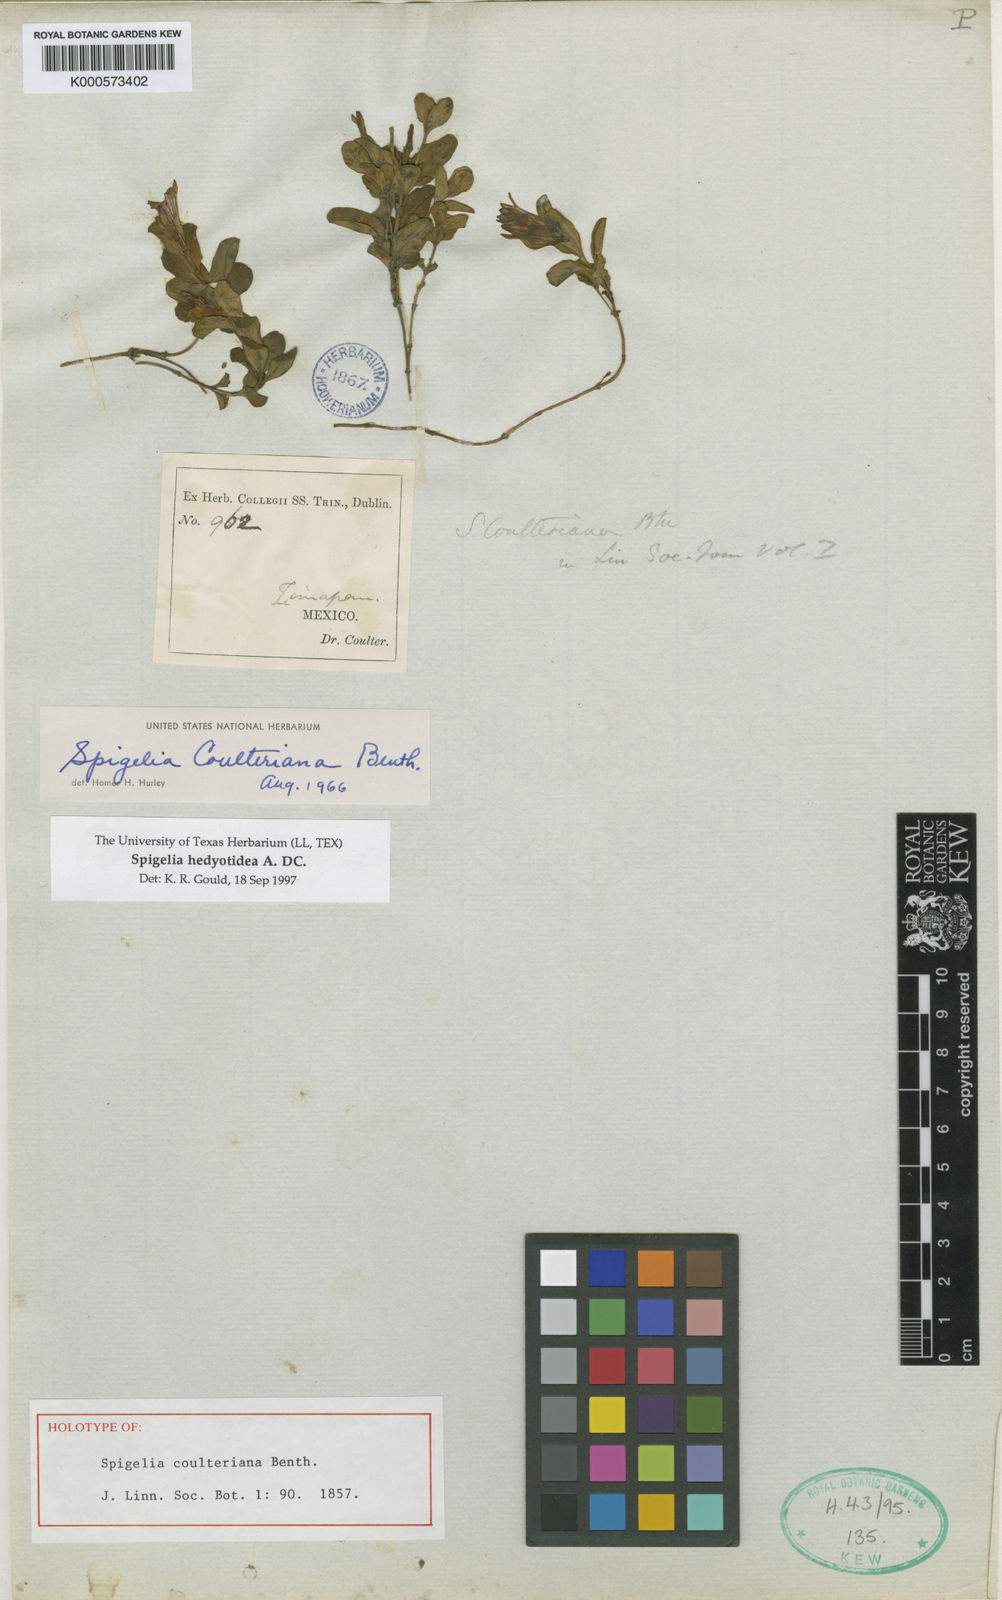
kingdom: Plantae
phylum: Tracheophyta
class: Magnoliopsida
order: Gentianales
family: Loganiaceae
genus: Spigelia
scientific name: Spigelia hedyotidea
